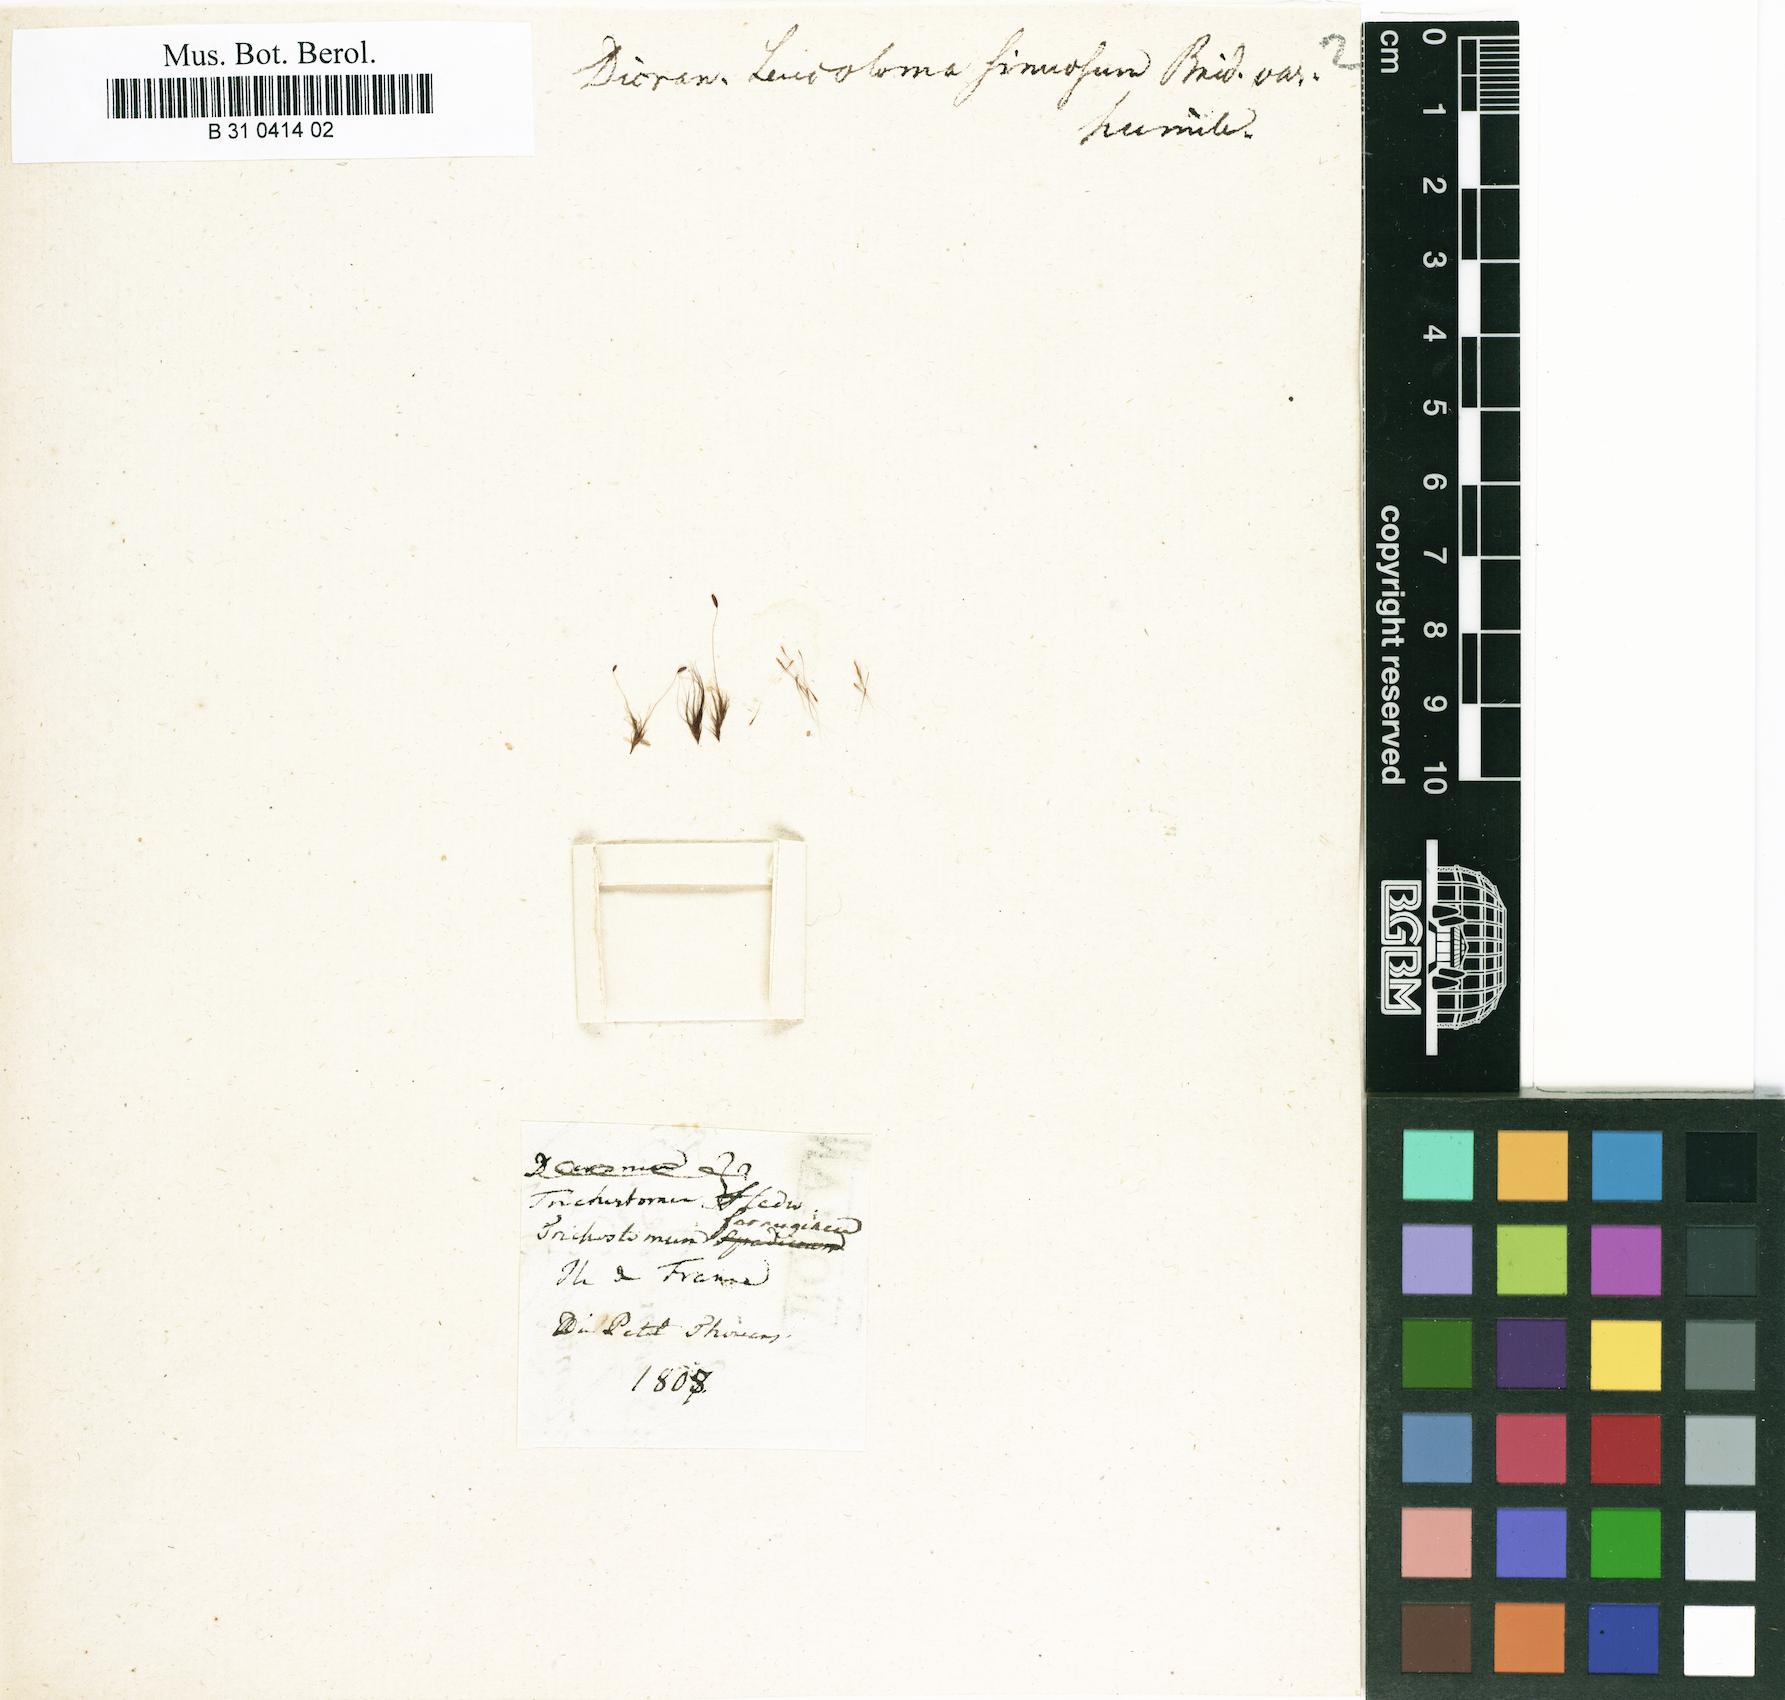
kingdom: Plantae
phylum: Bryophyta
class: Bryopsida
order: Dicranales
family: Dicranaceae
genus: Leucoloma
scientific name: Leucoloma longifolium
